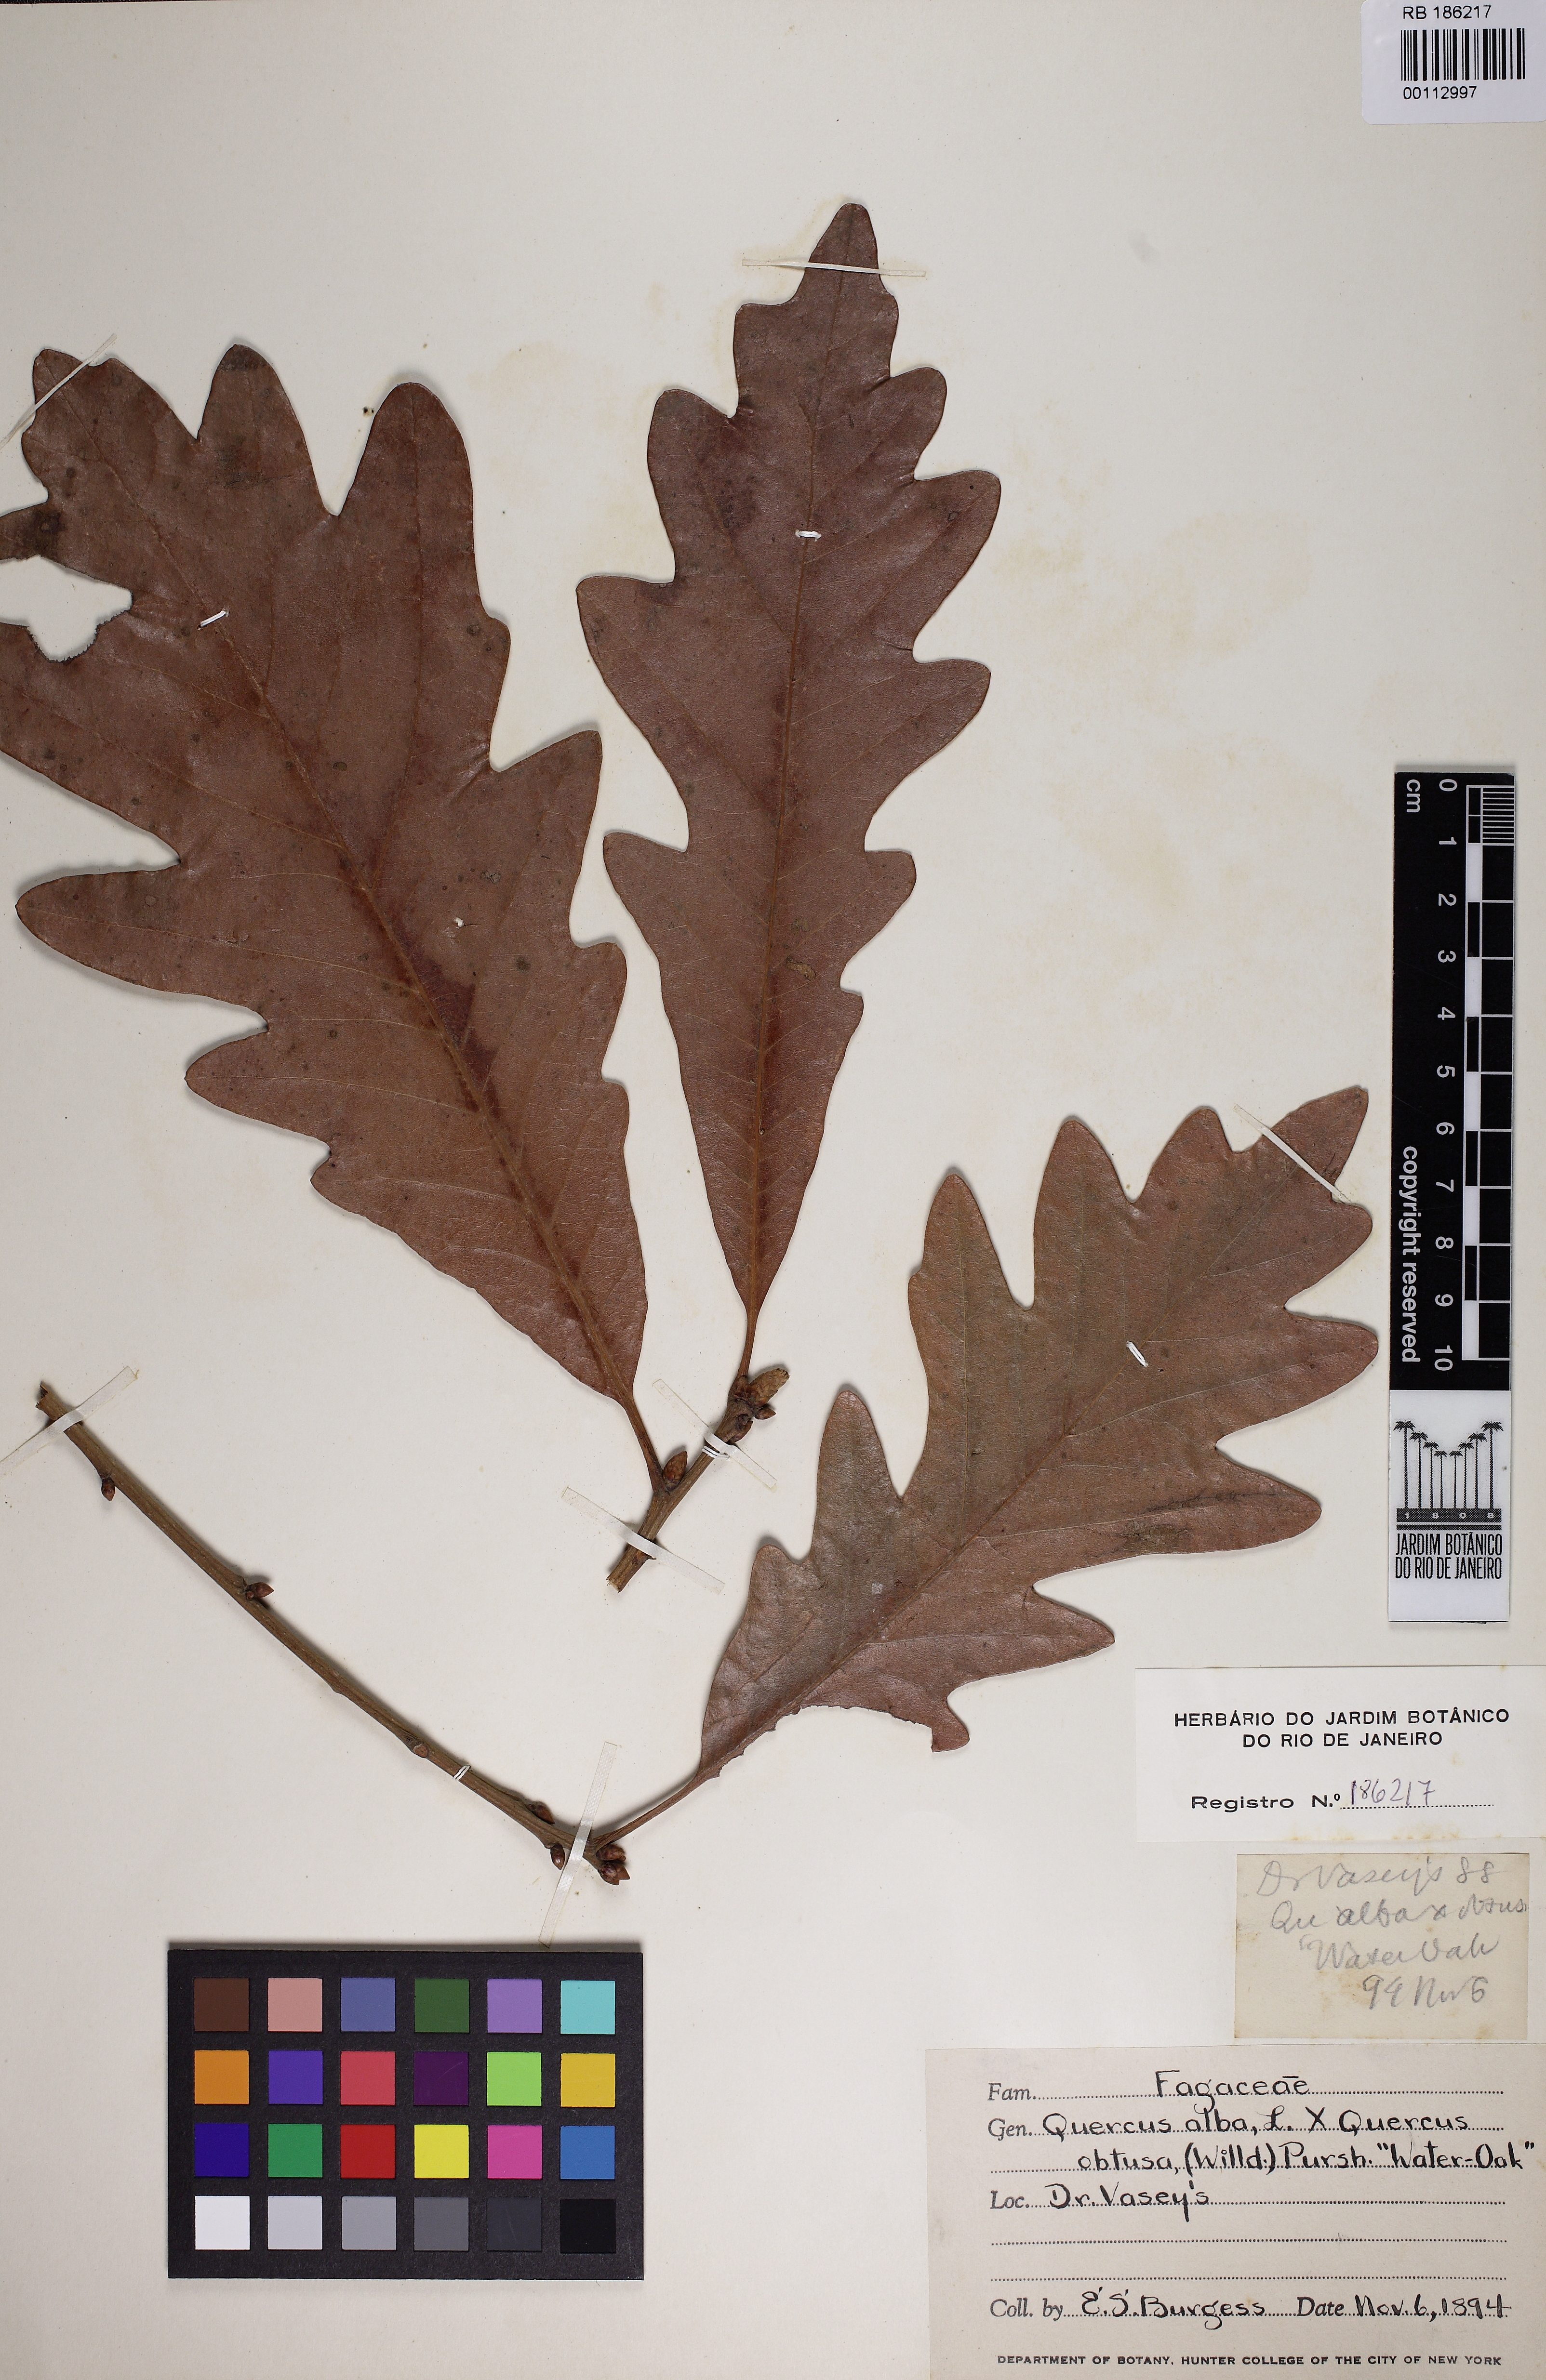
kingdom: Plantae
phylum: Tracheophyta
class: Magnoliopsida
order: Fagales
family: Fagaceae
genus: Quercus
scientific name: Quercus alba
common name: White oak
